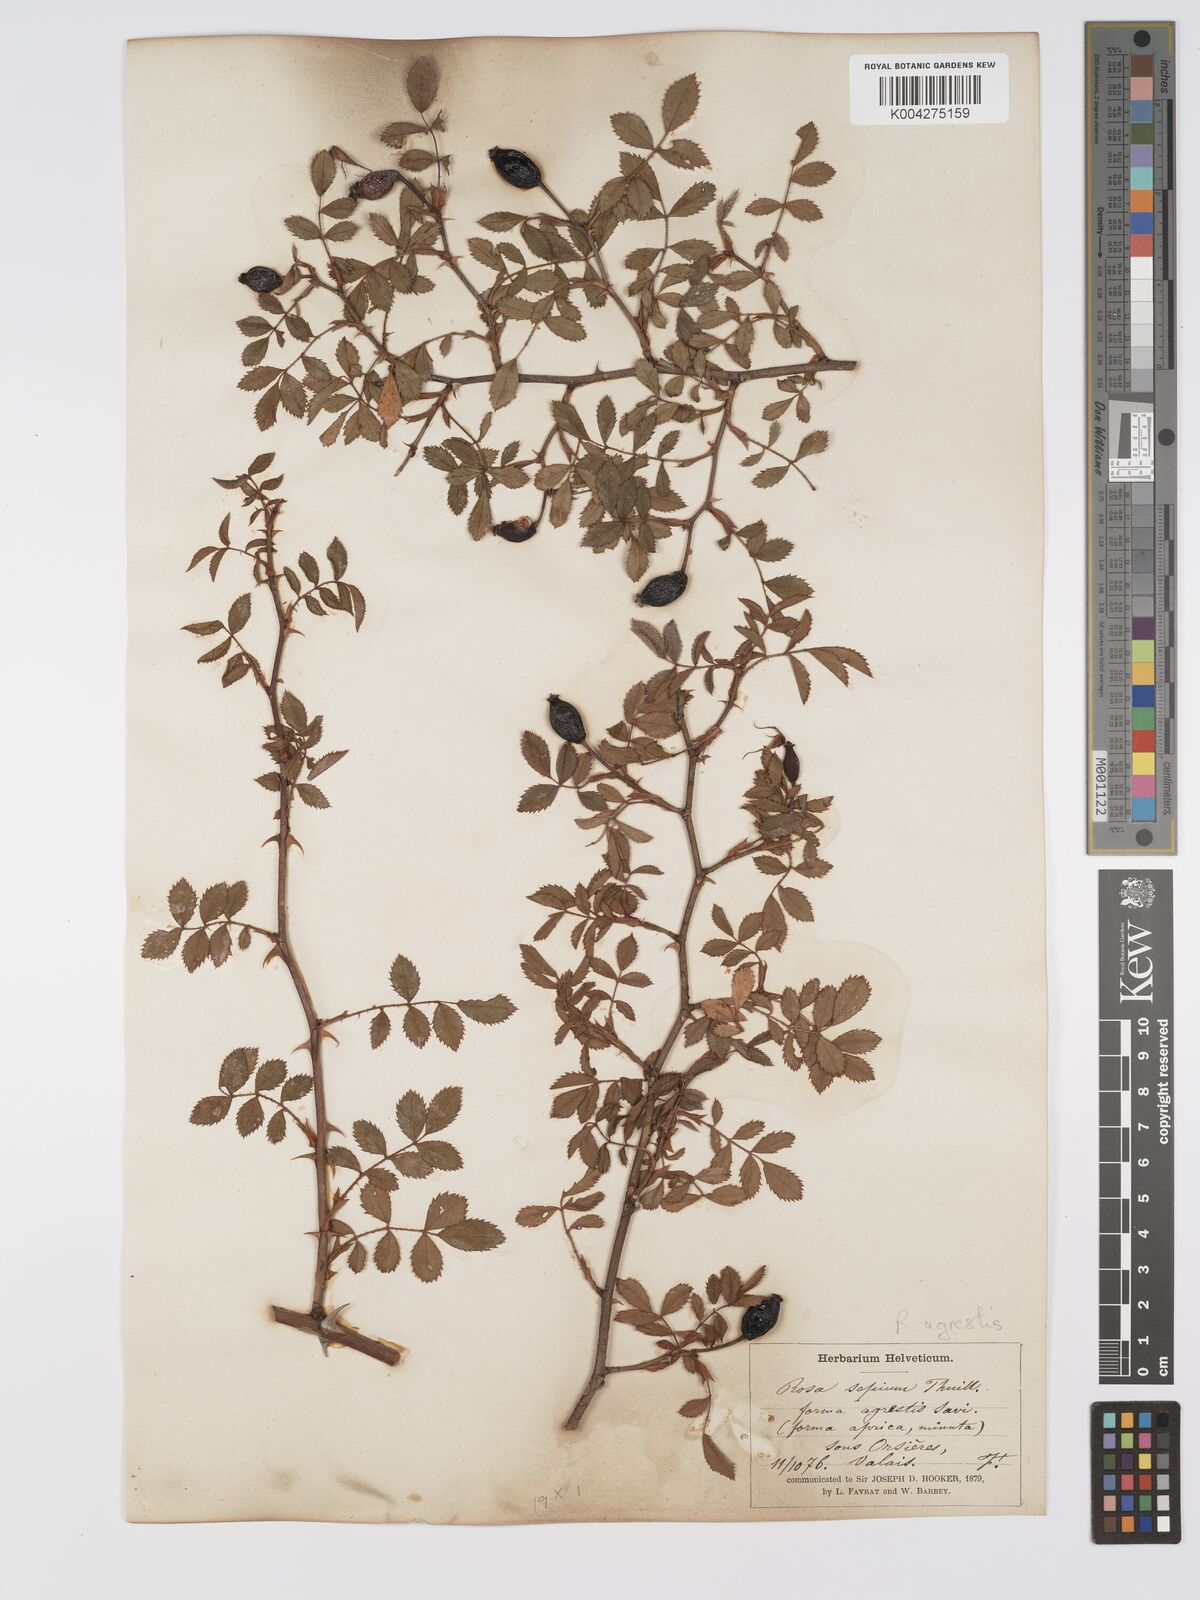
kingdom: Plantae
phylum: Tracheophyta
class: Magnoliopsida
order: Rosales
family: Rosaceae
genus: Rosa
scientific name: Rosa
